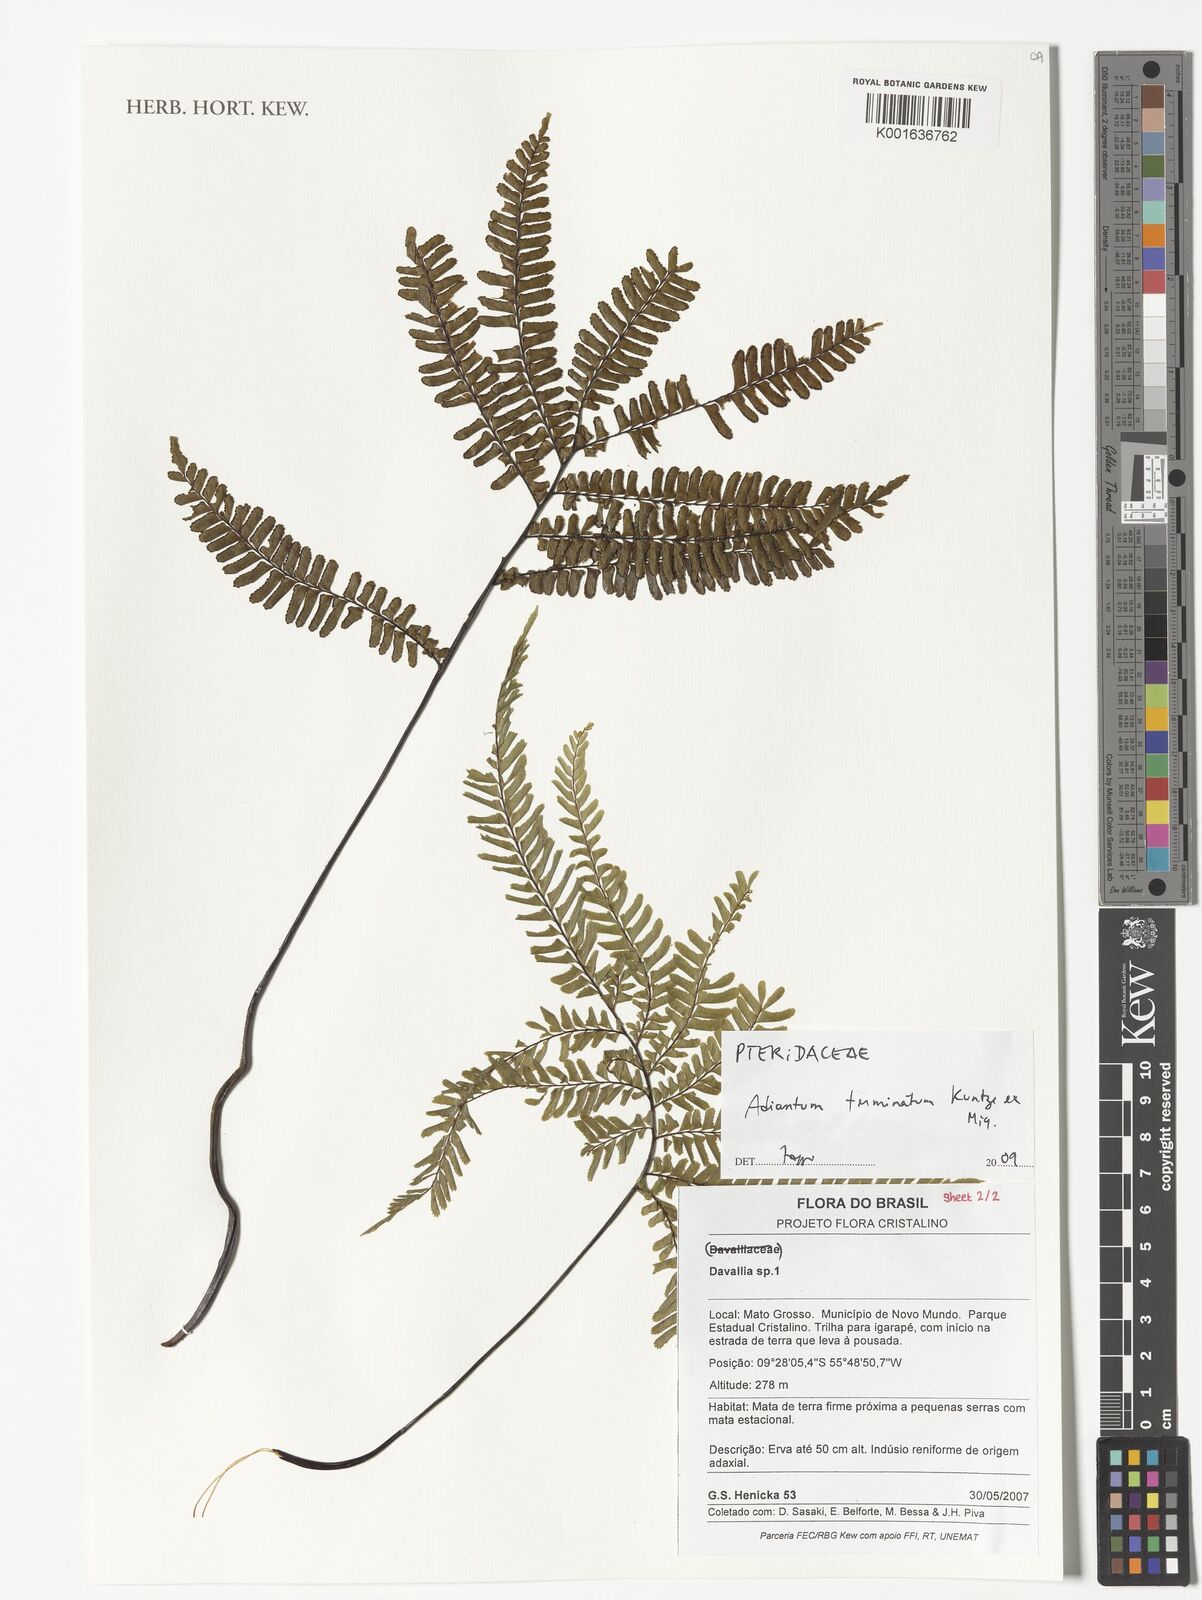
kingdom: Plantae
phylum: Tracheophyta
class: Polypodiopsida
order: Polypodiales
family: Pteridaceae
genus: Adiantum
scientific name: Adiantum
